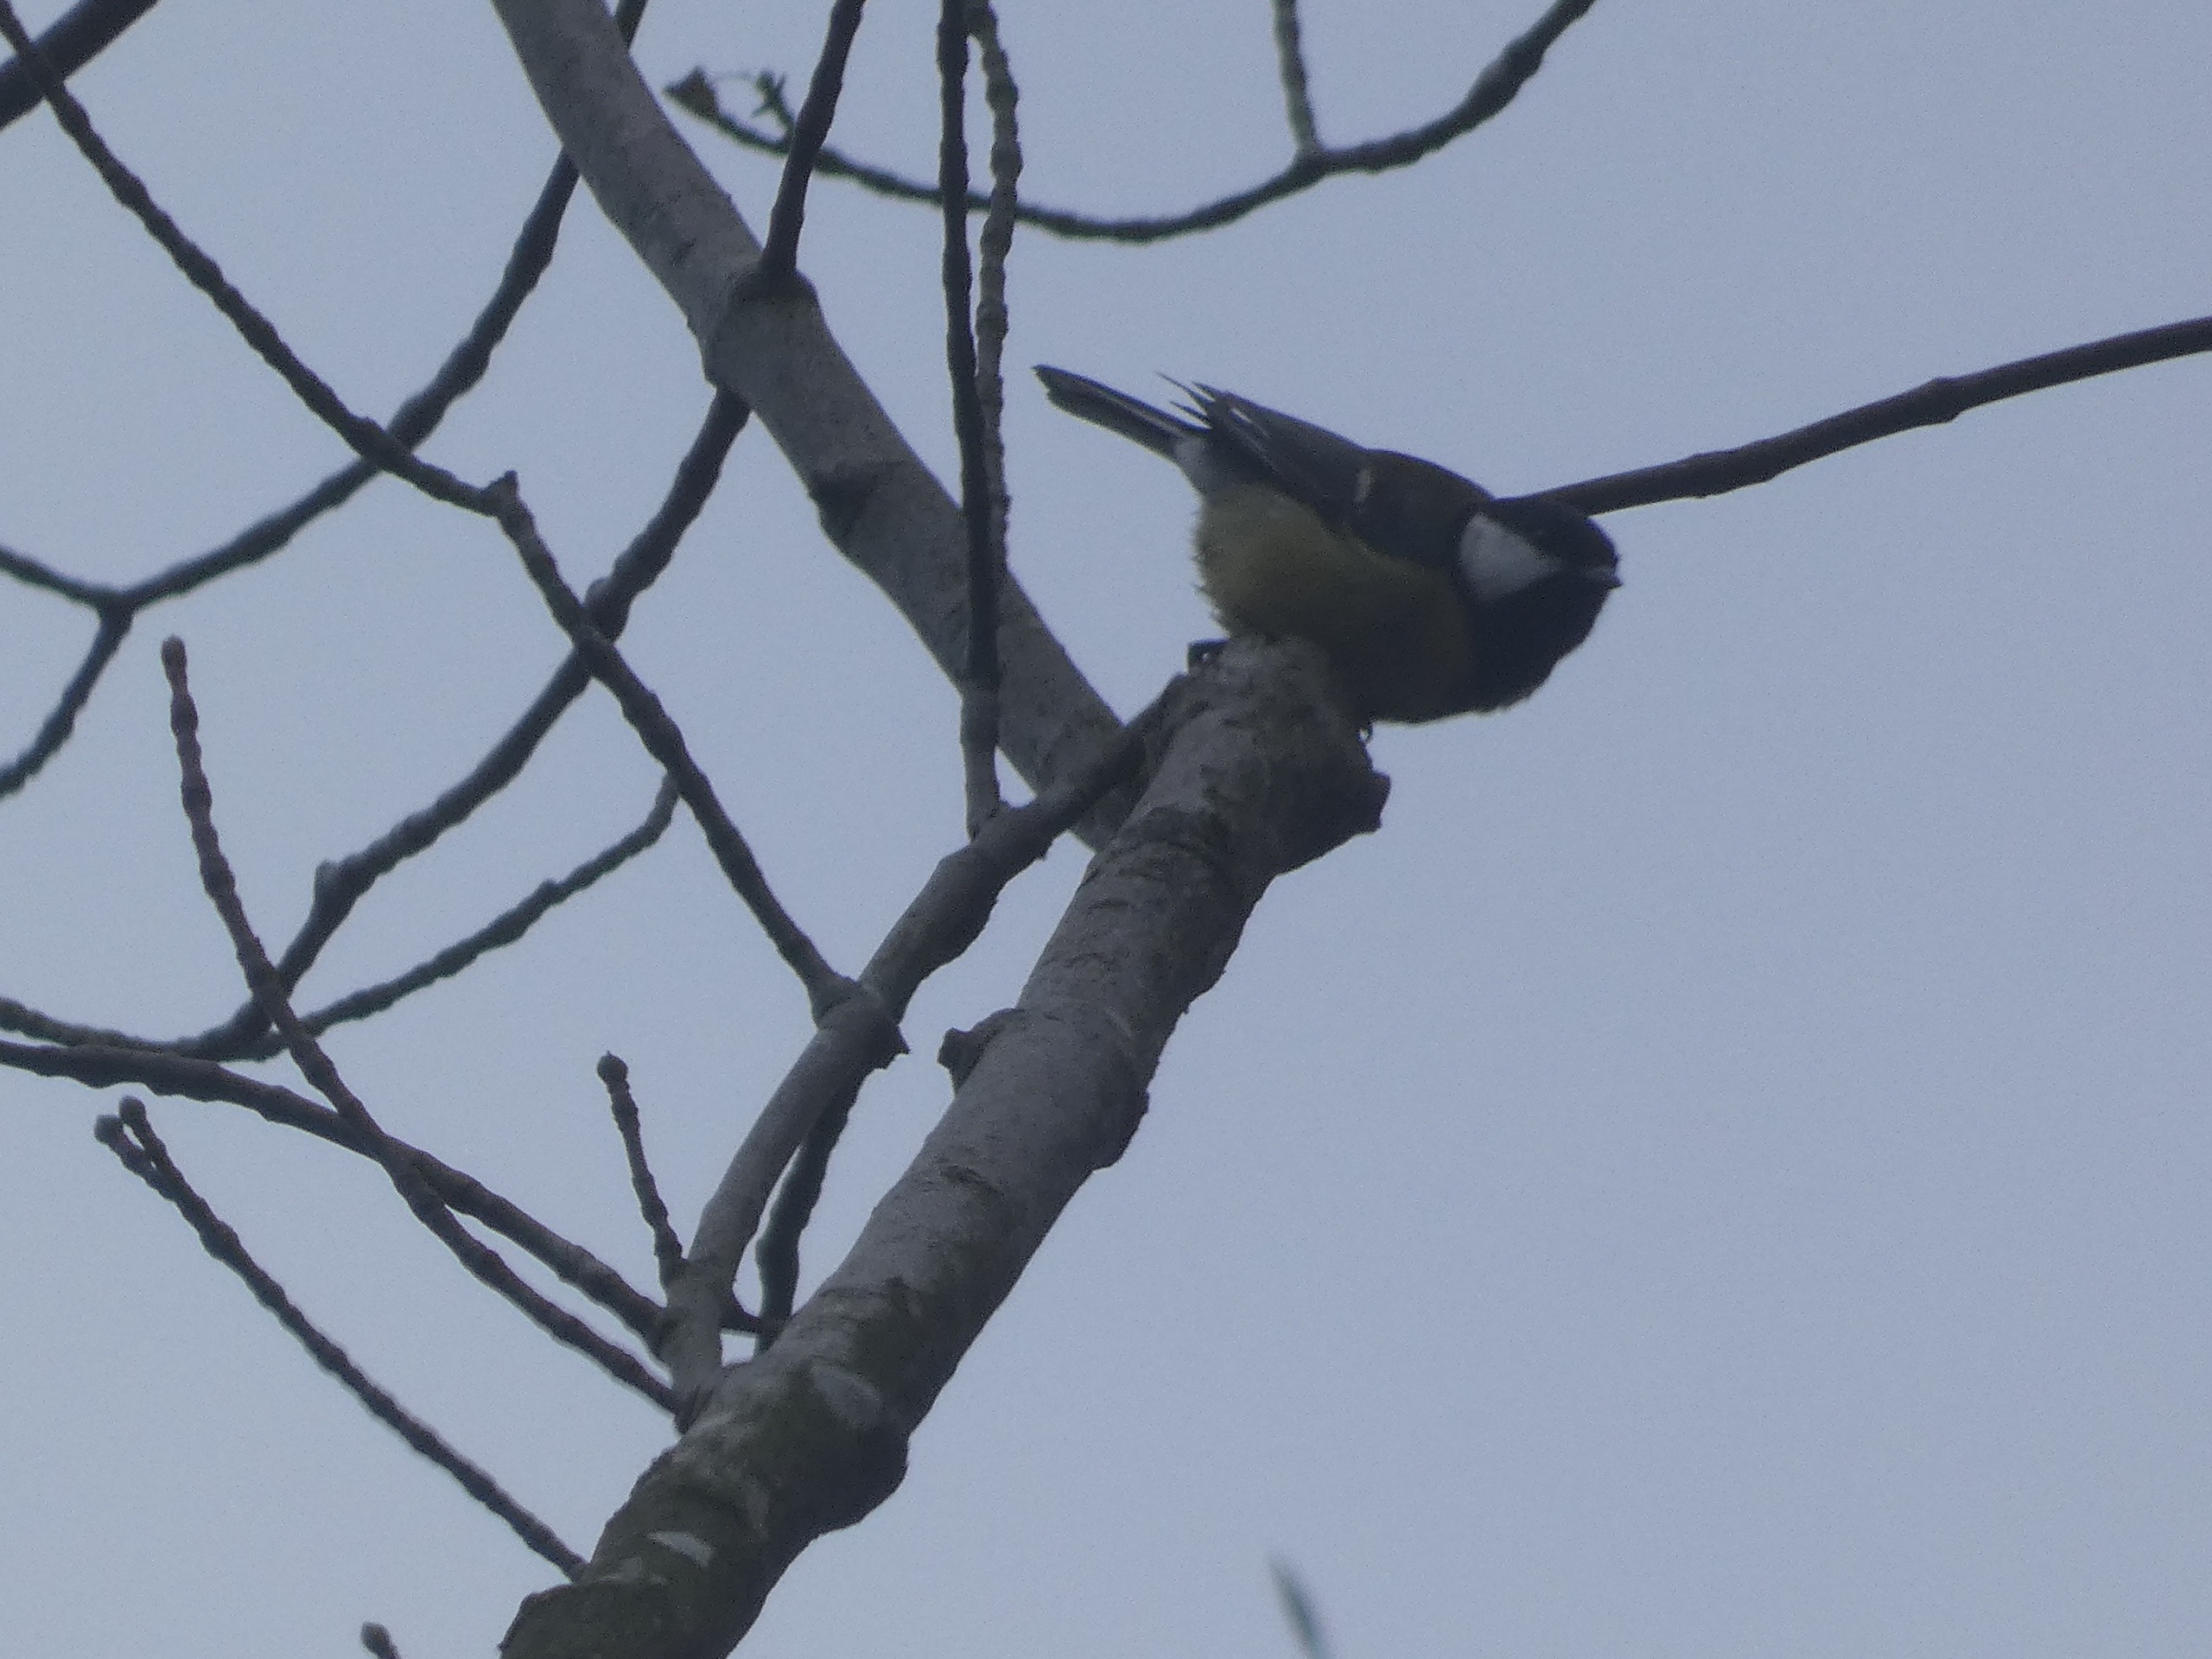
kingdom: Animalia
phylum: Chordata
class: Aves
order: Passeriformes
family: Paridae
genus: Parus
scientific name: Parus major
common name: Musvit
